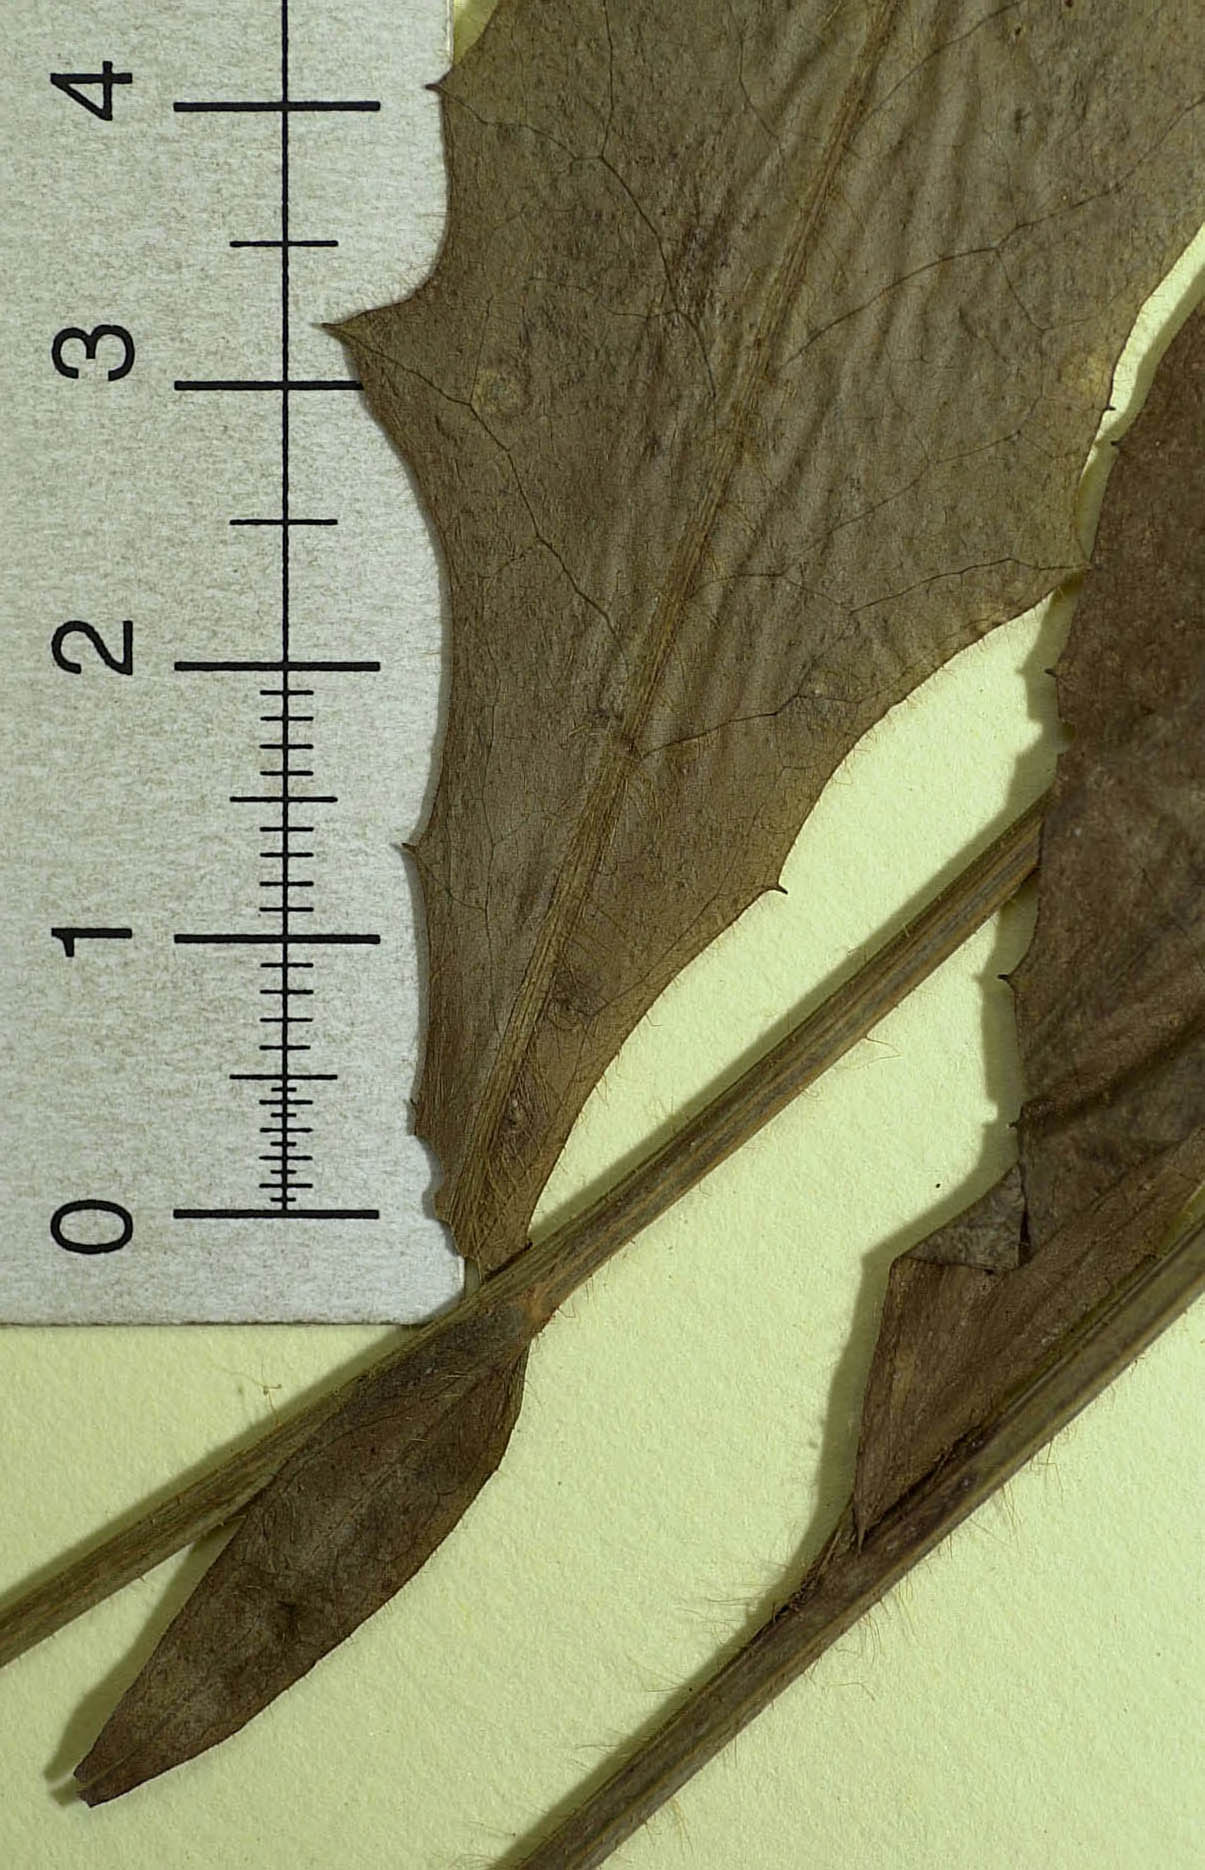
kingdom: Plantae
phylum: Tracheophyta
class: Magnoliopsida
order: Asterales
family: Asteraceae
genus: Hieracium
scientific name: Hieracium bracteolatum
